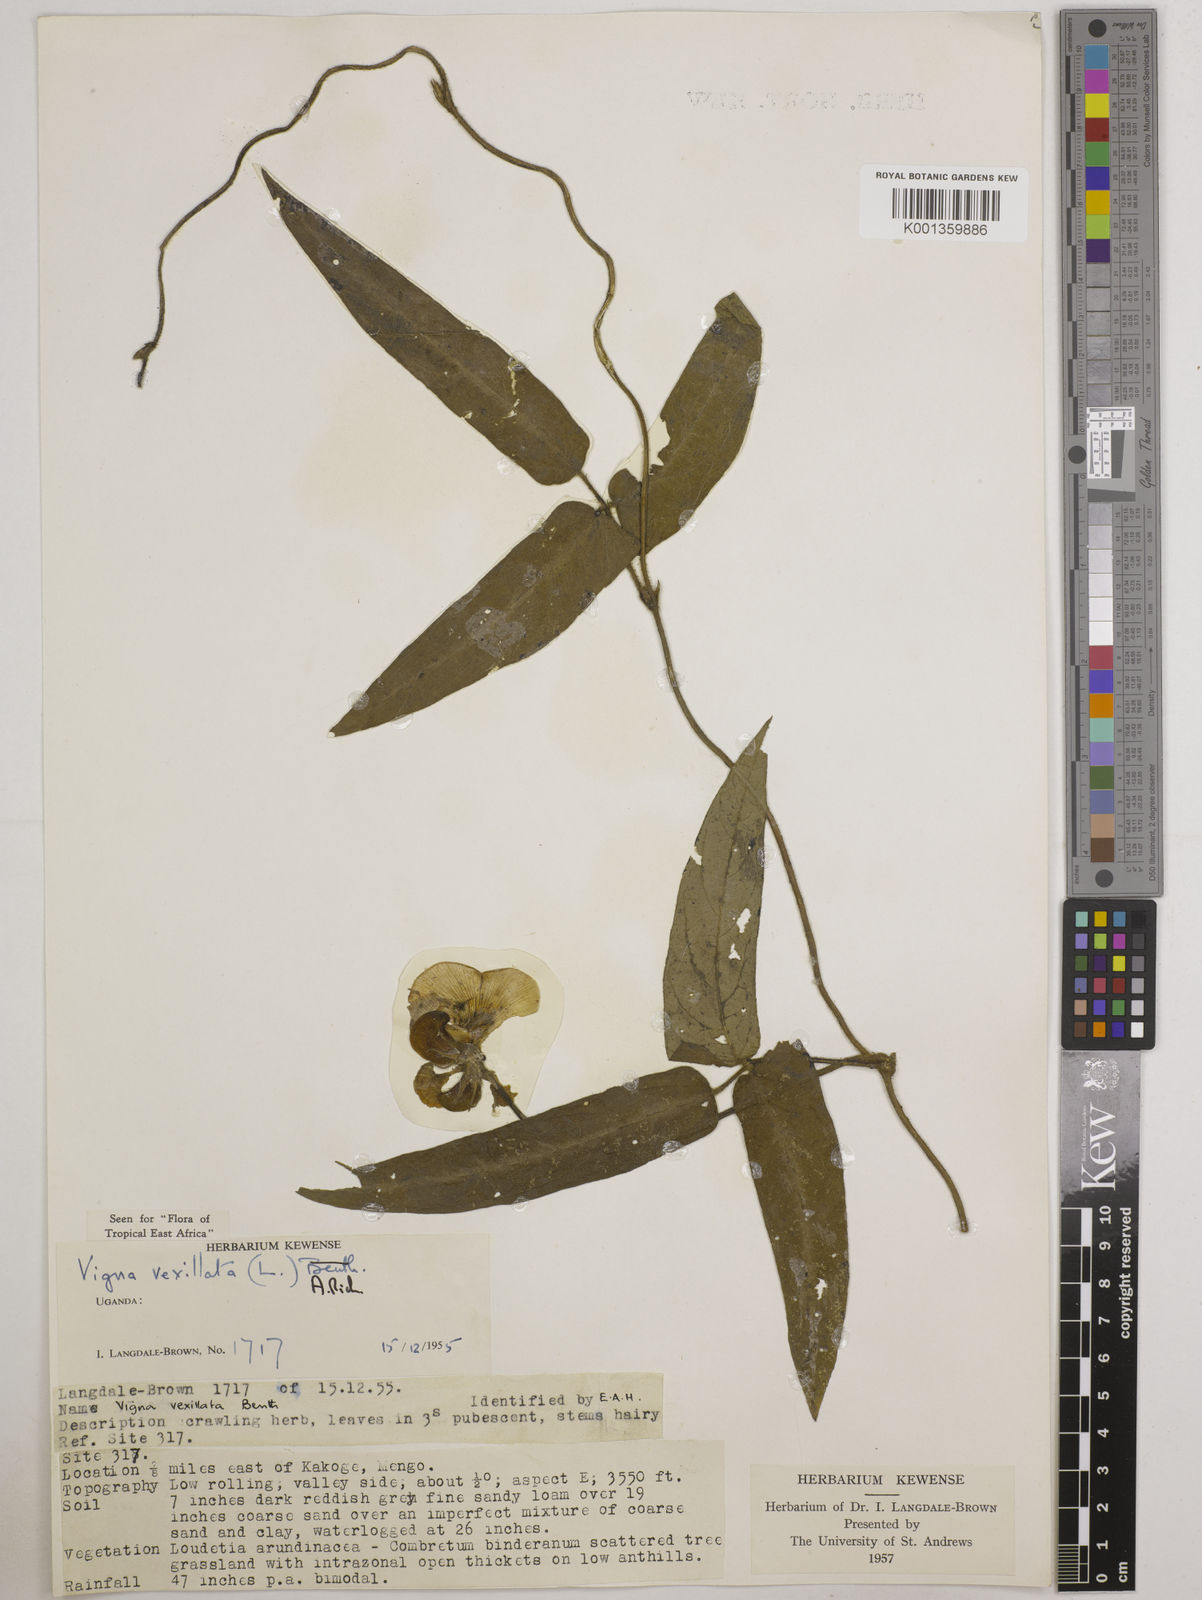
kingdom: Plantae
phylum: Tracheophyta
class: Magnoliopsida
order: Fabales
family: Fabaceae
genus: Vigna
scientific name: Vigna vexillata
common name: Zombi pea
